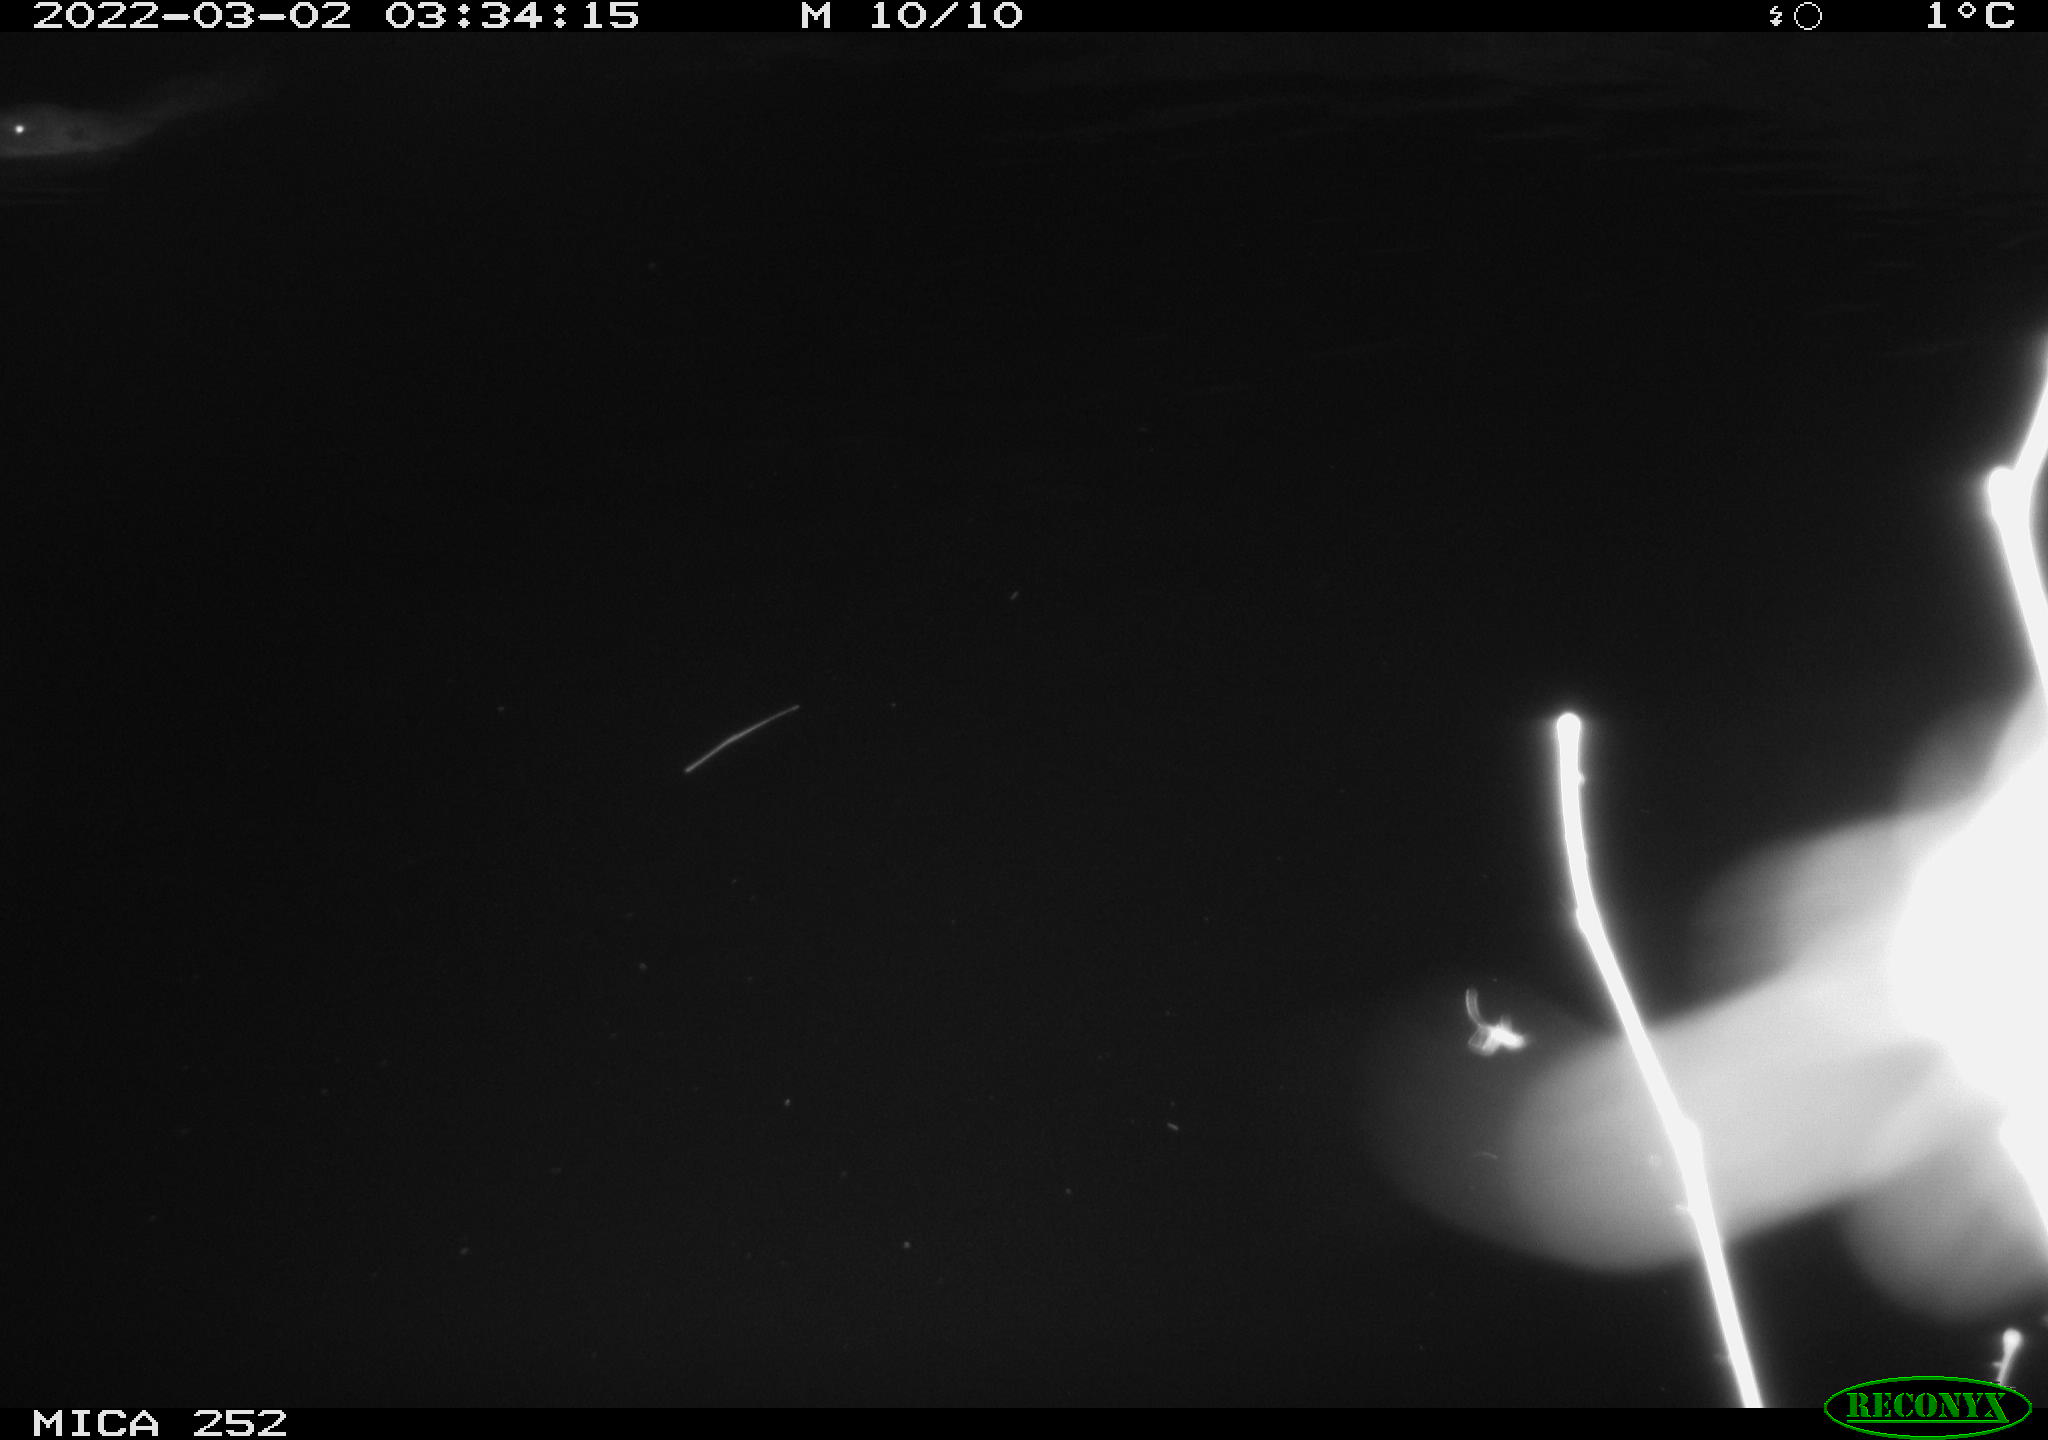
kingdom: Animalia
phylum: Chordata
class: Mammalia
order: Rodentia
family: Castoridae
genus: Castor
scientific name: Castor fiber
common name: Eurasian beaver
